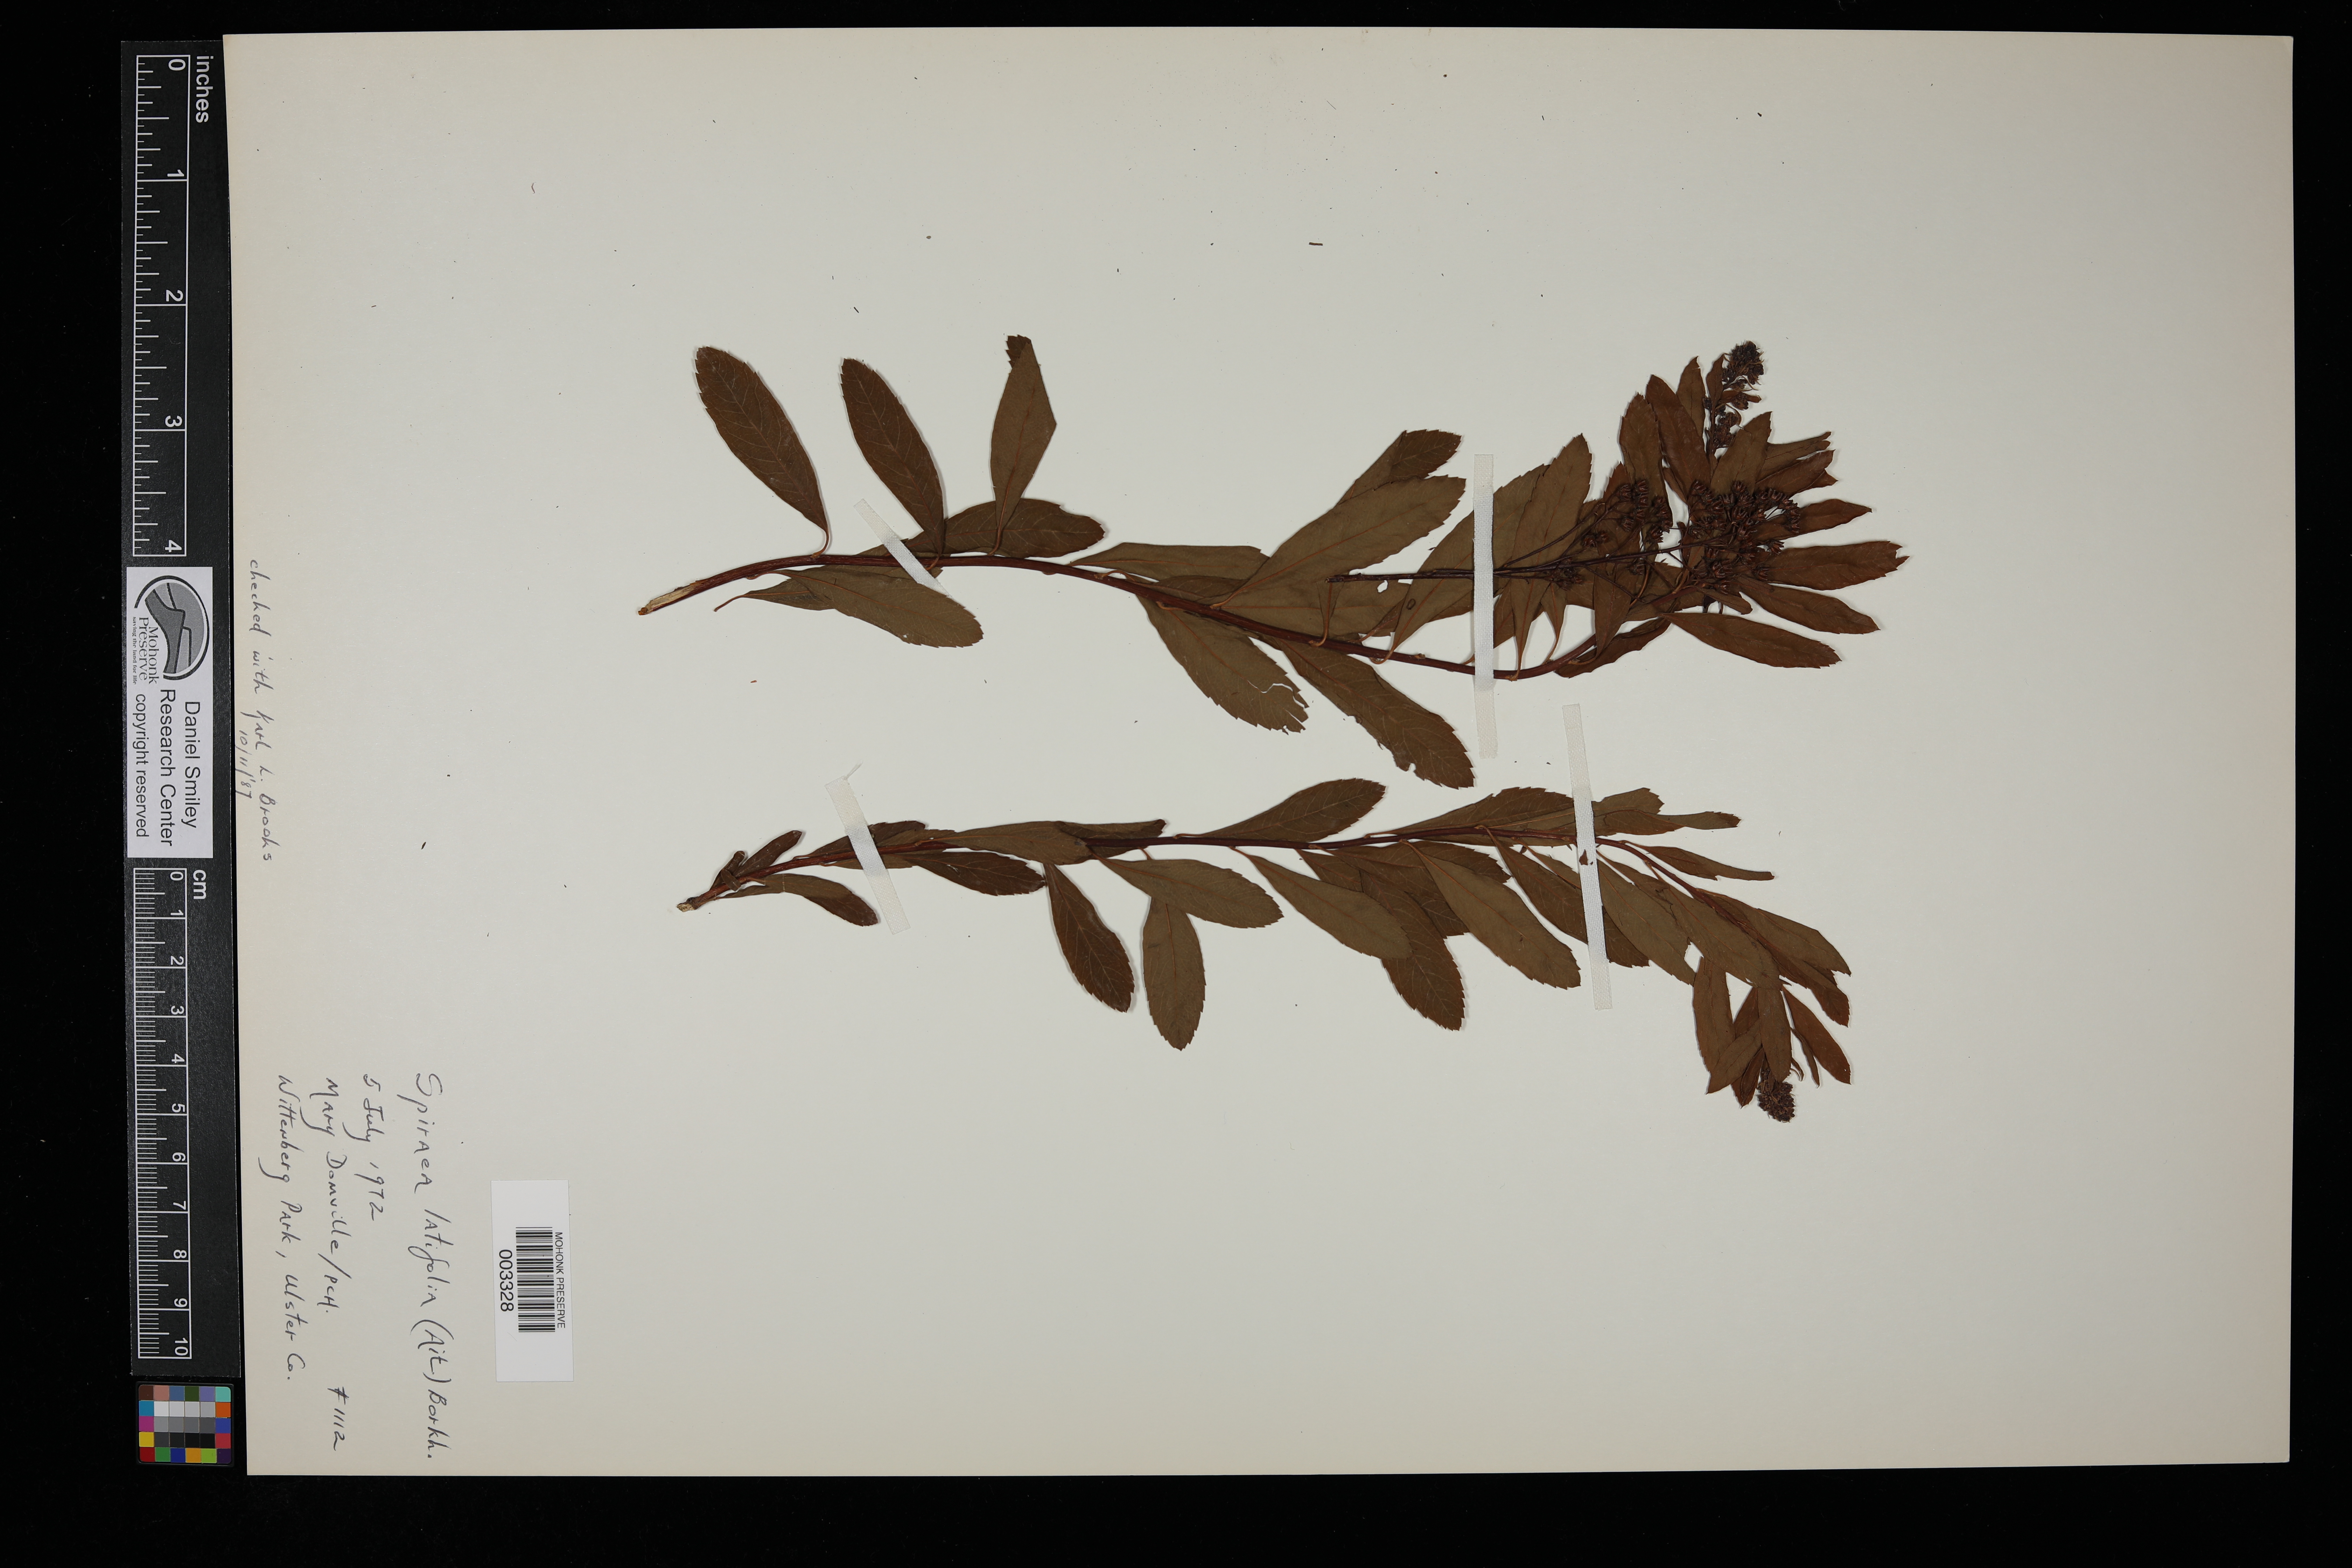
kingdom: Plantae
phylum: Tracheophyta
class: Magnoliopsida
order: Rosales
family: Rosaceae
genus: Spiraea
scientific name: Spiraea alba
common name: Pale bridewort
